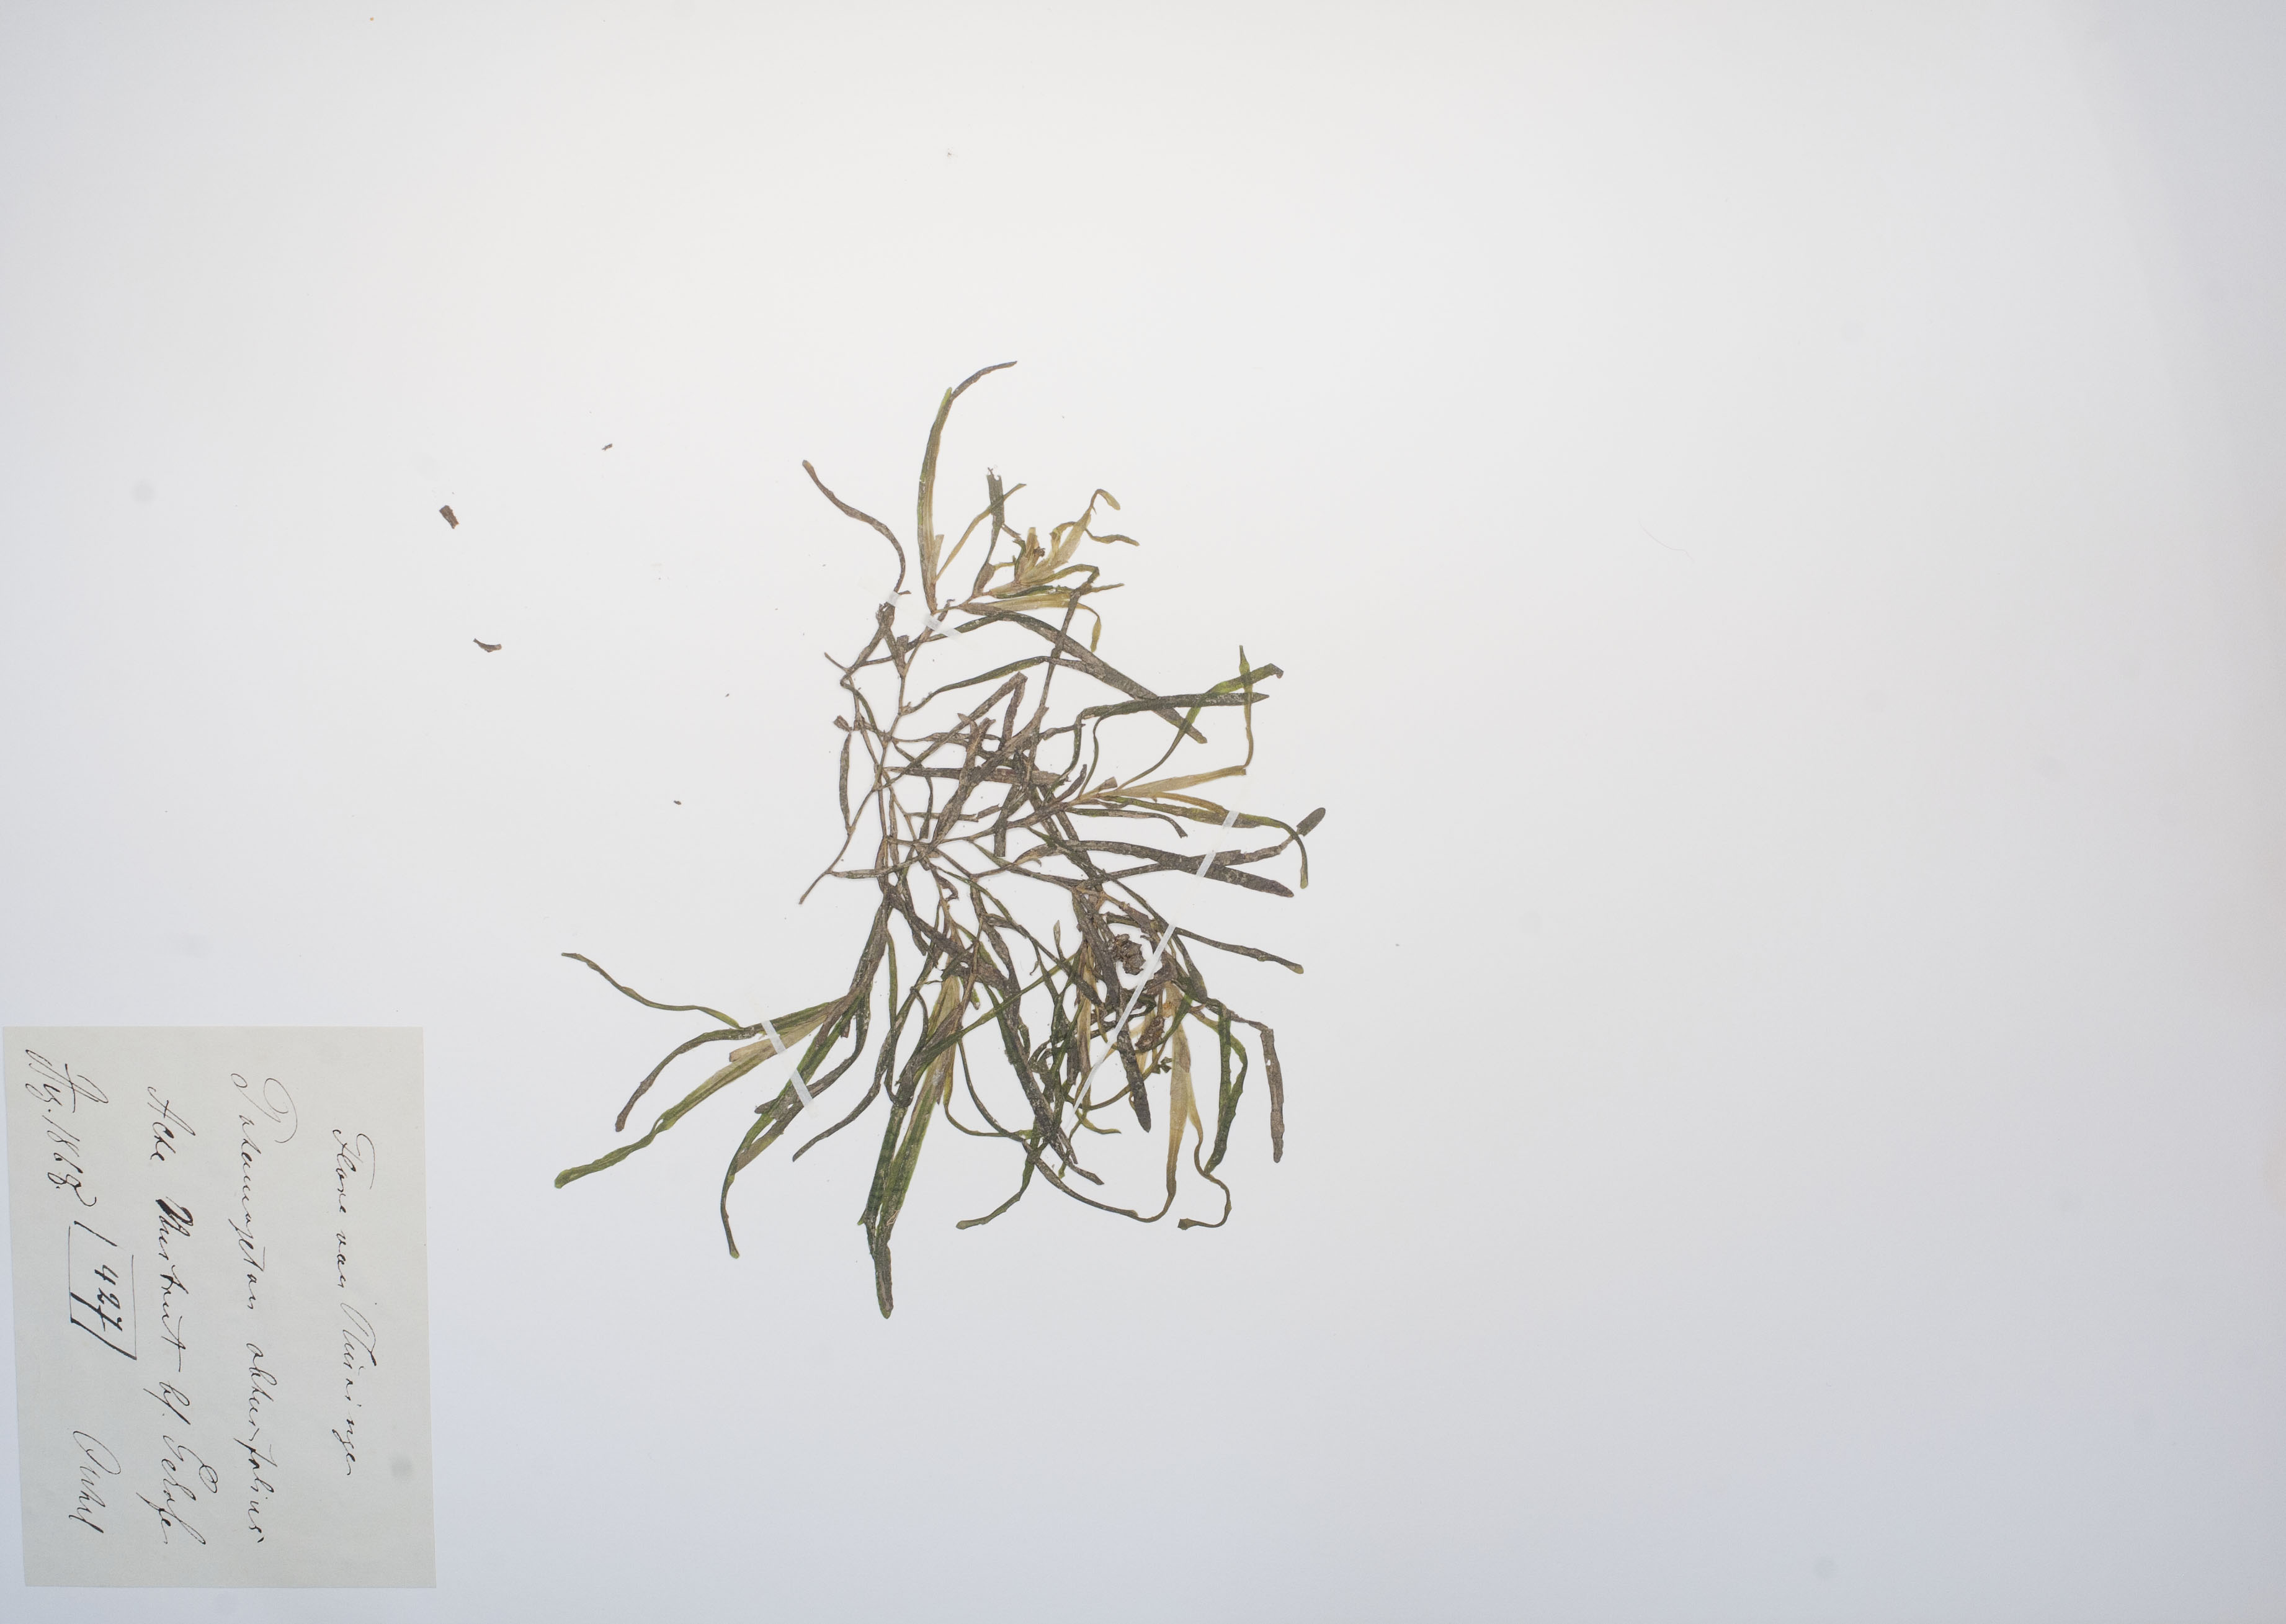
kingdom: Plantae
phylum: Tracheophyta
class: Liliopsida
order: Alismatales
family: Potamogetonaceae
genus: Potamogeton
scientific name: Potamogeton obtusifolius
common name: Blunt-leaved pondweed
